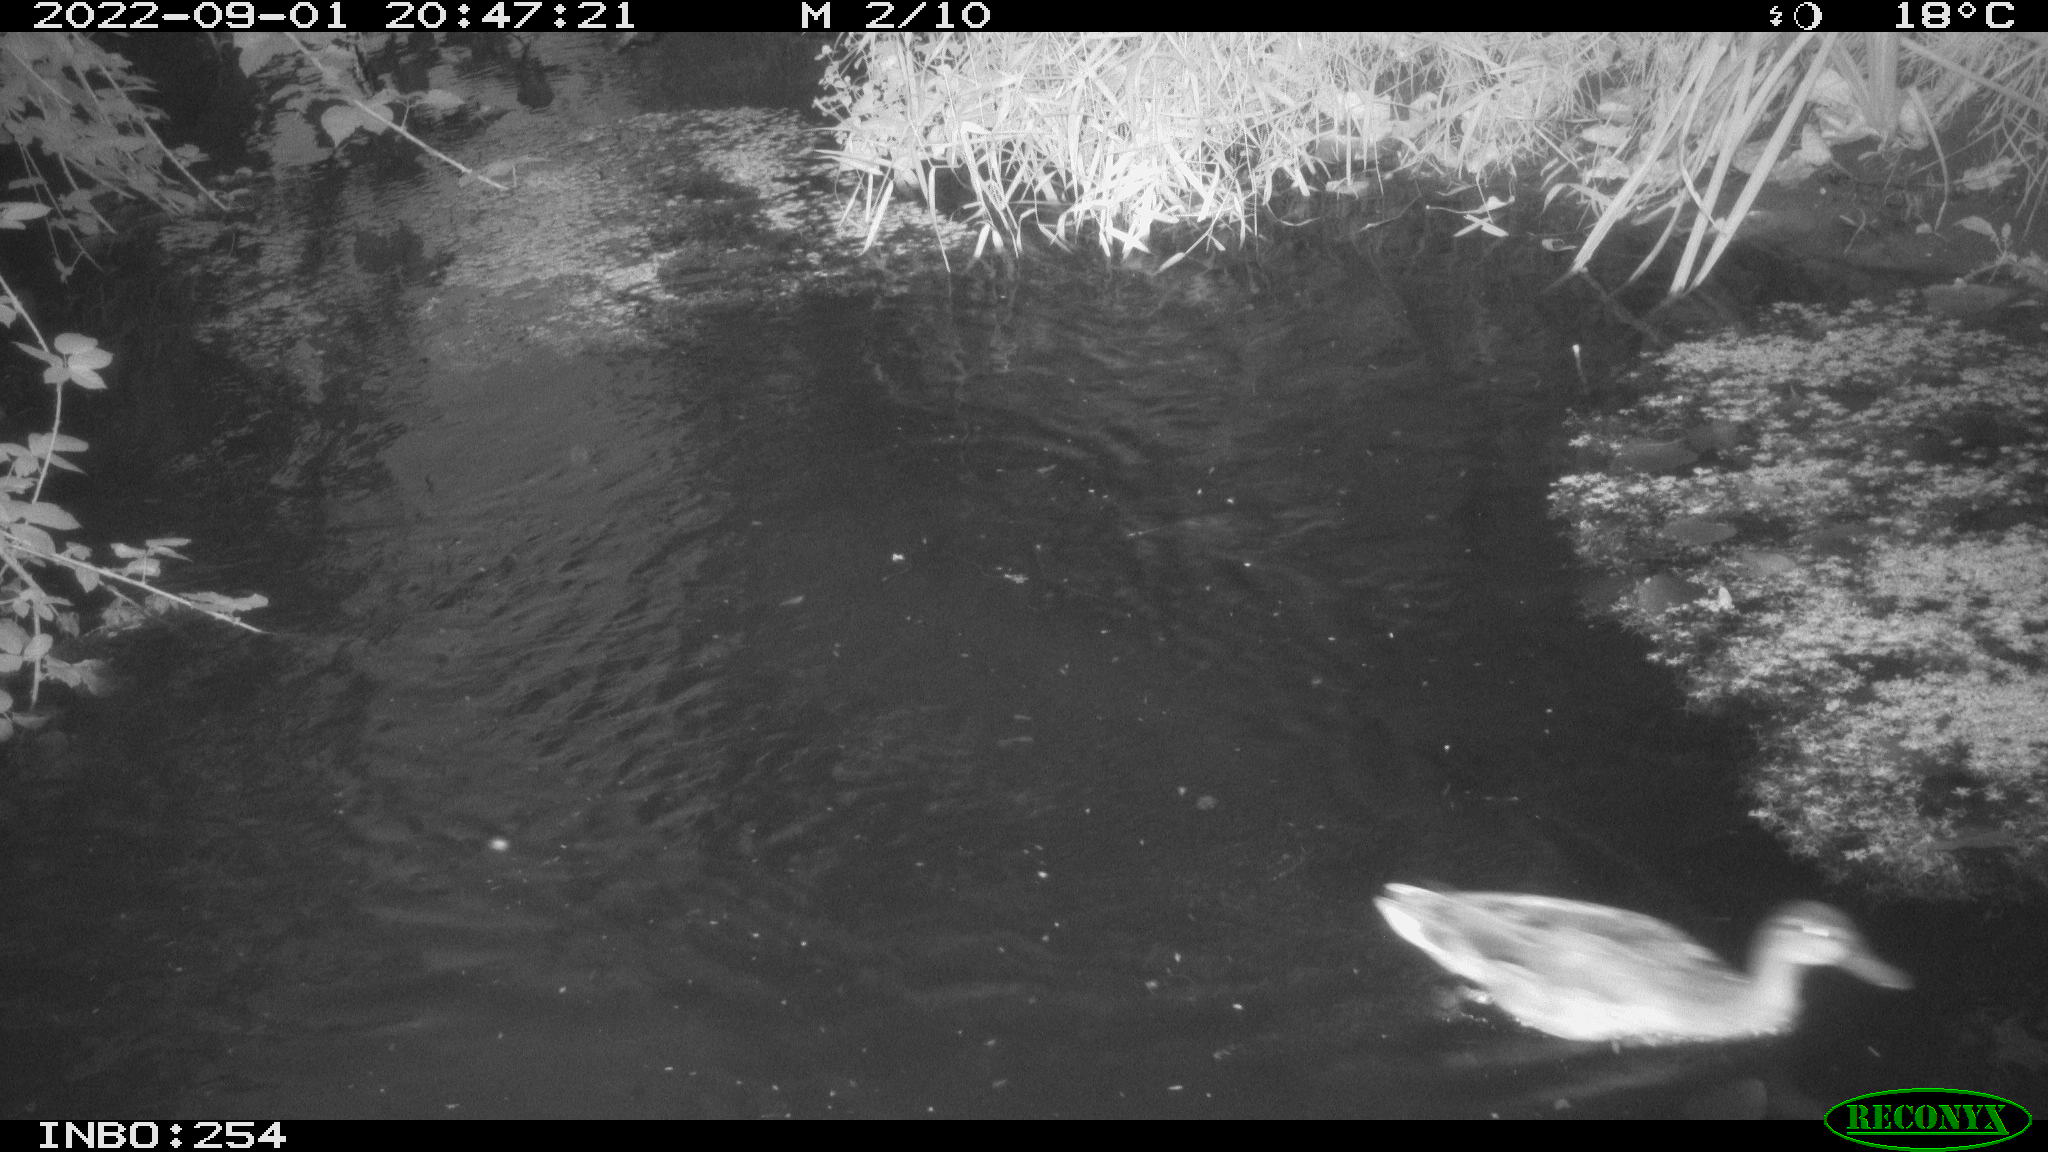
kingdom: Animalia
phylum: Chordata
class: Aves
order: Anseriformes
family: Anatidae
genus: Anas
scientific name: Anas platyrhynchos
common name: Mallard
